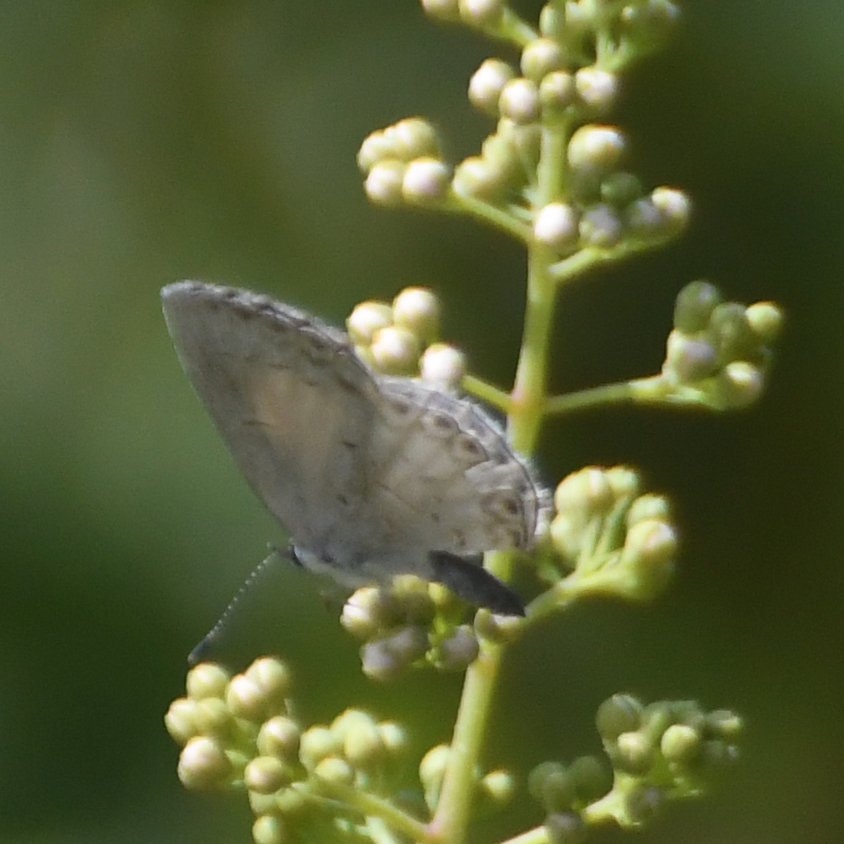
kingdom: Animalia
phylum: Arthropoda
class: Insecta
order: Lepidoptera
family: Lycaenidae
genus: Celastrina
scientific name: Celastrina lucia
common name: Northern Spring Azure
